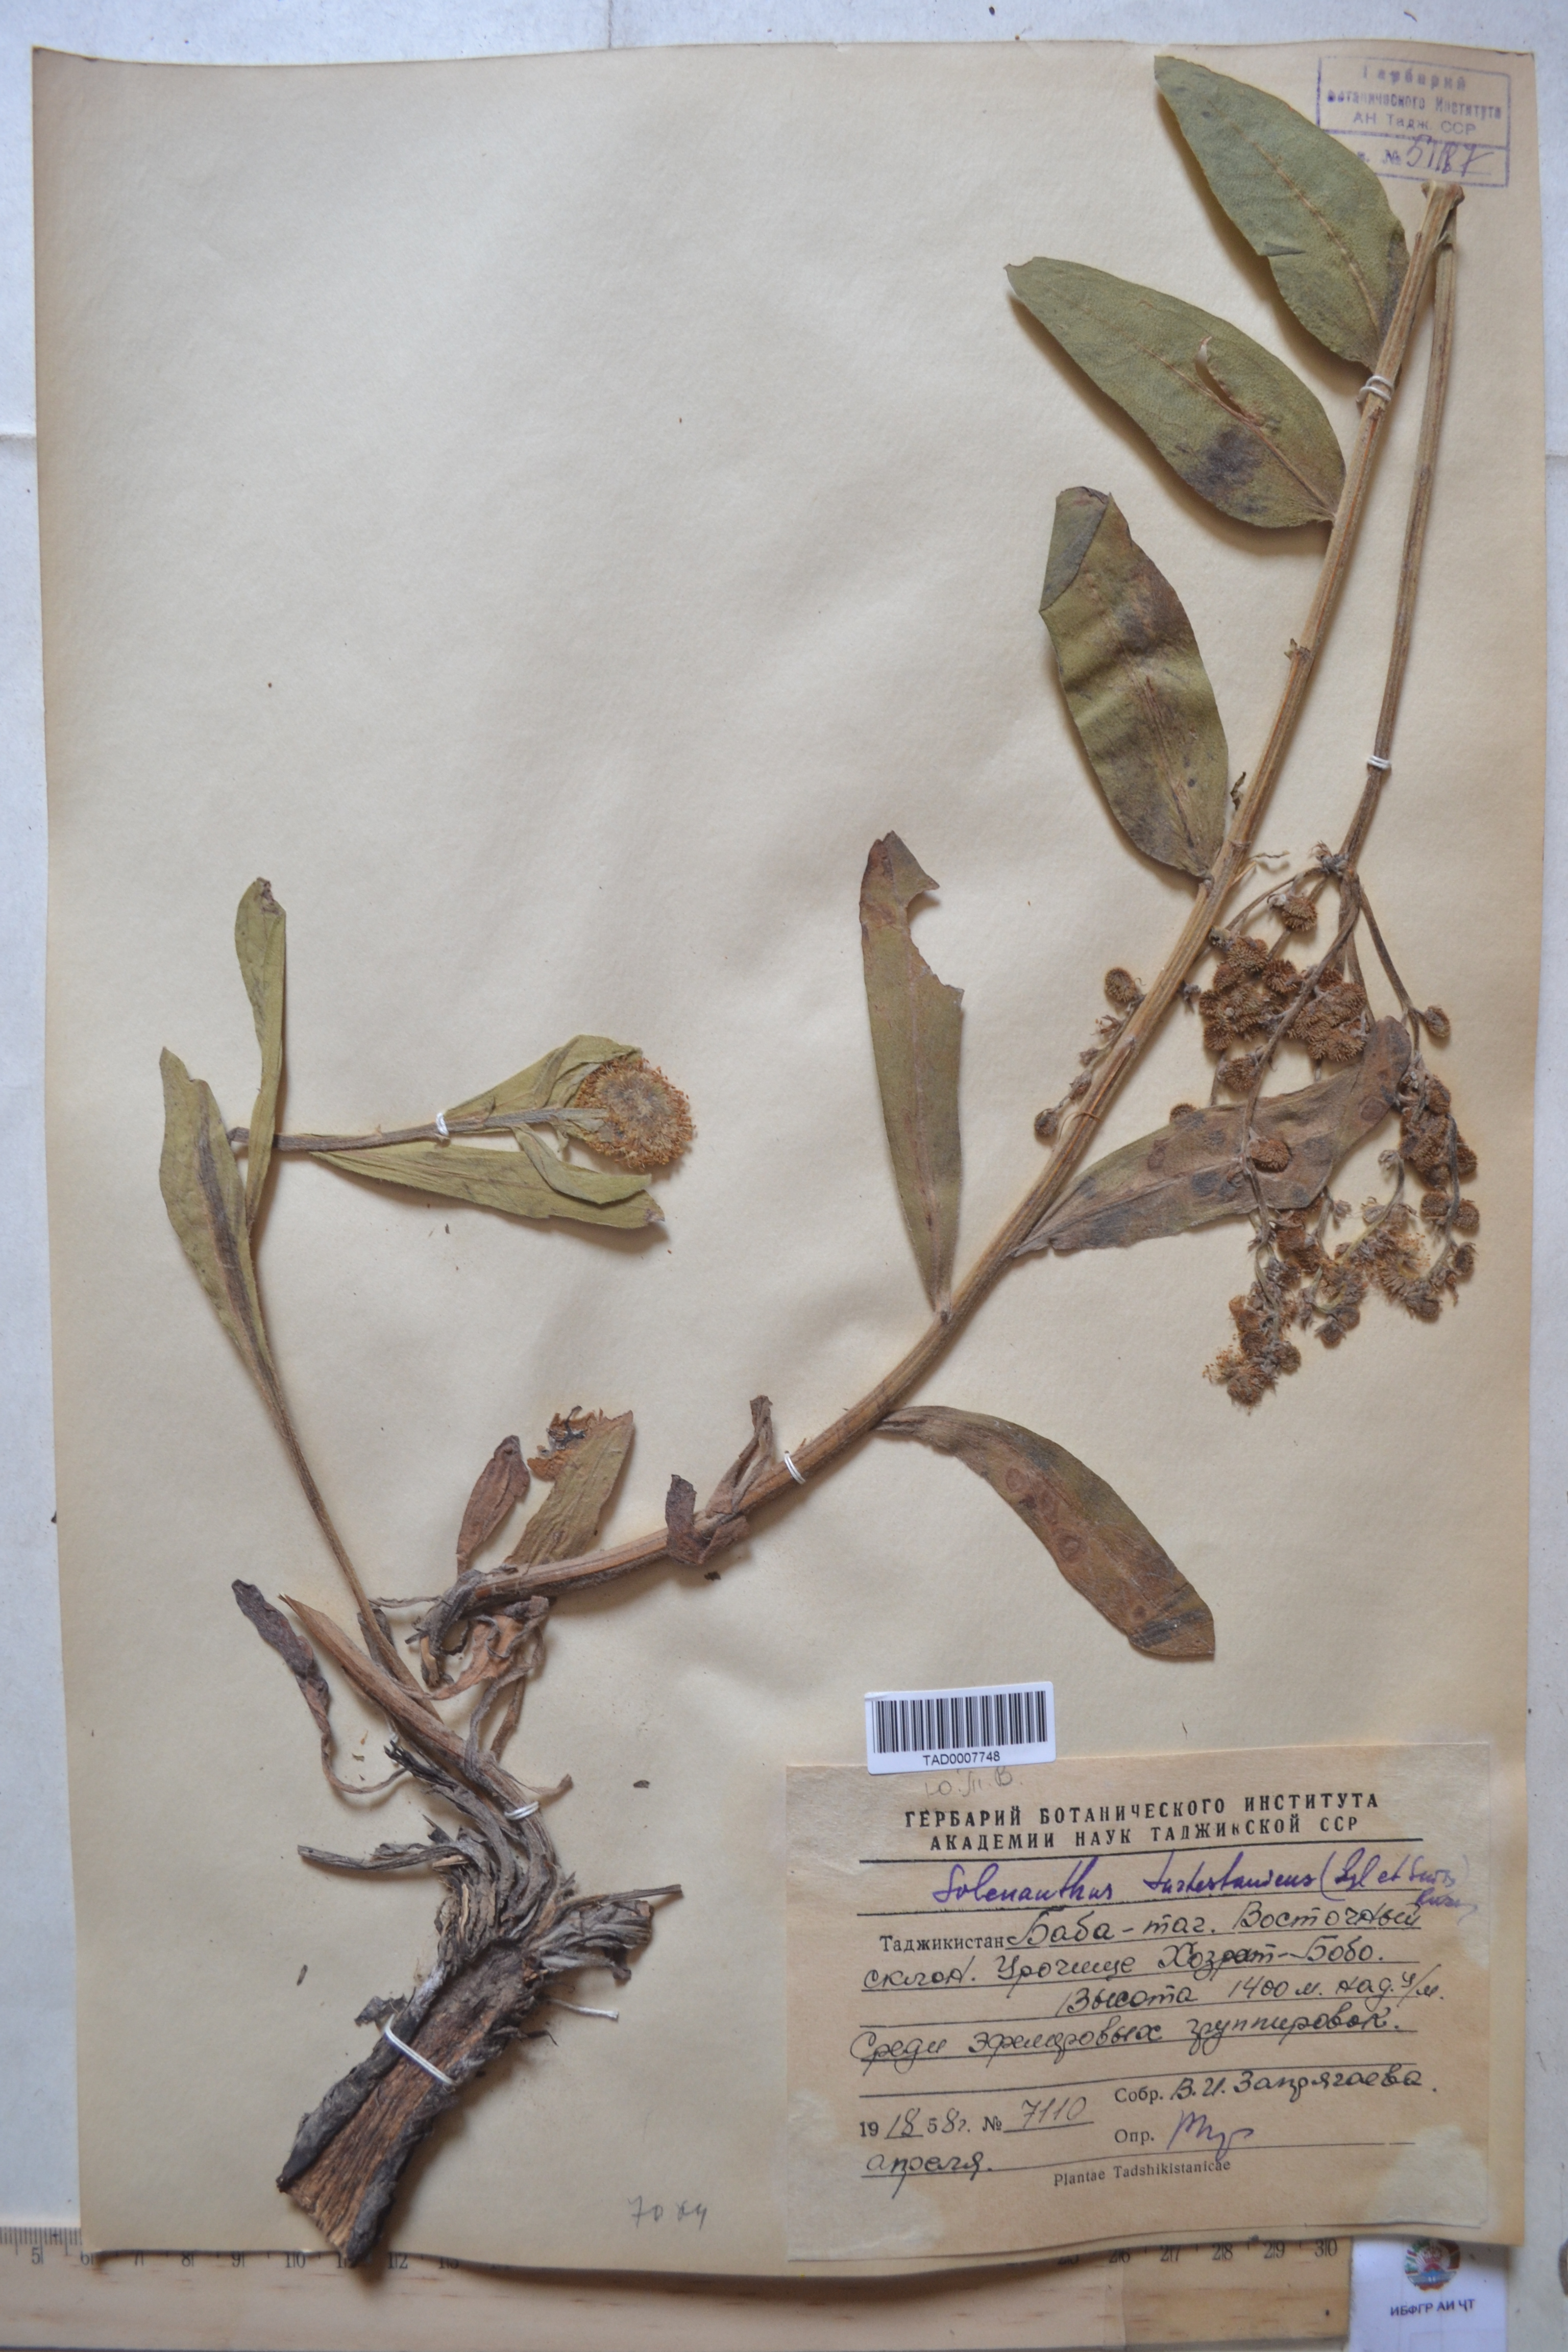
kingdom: Plantae
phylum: Tracheophyta
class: Magnoliopsida
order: Boraginales
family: Boraginaceae
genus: Solenanthus
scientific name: Solenanthus turkestanicus
